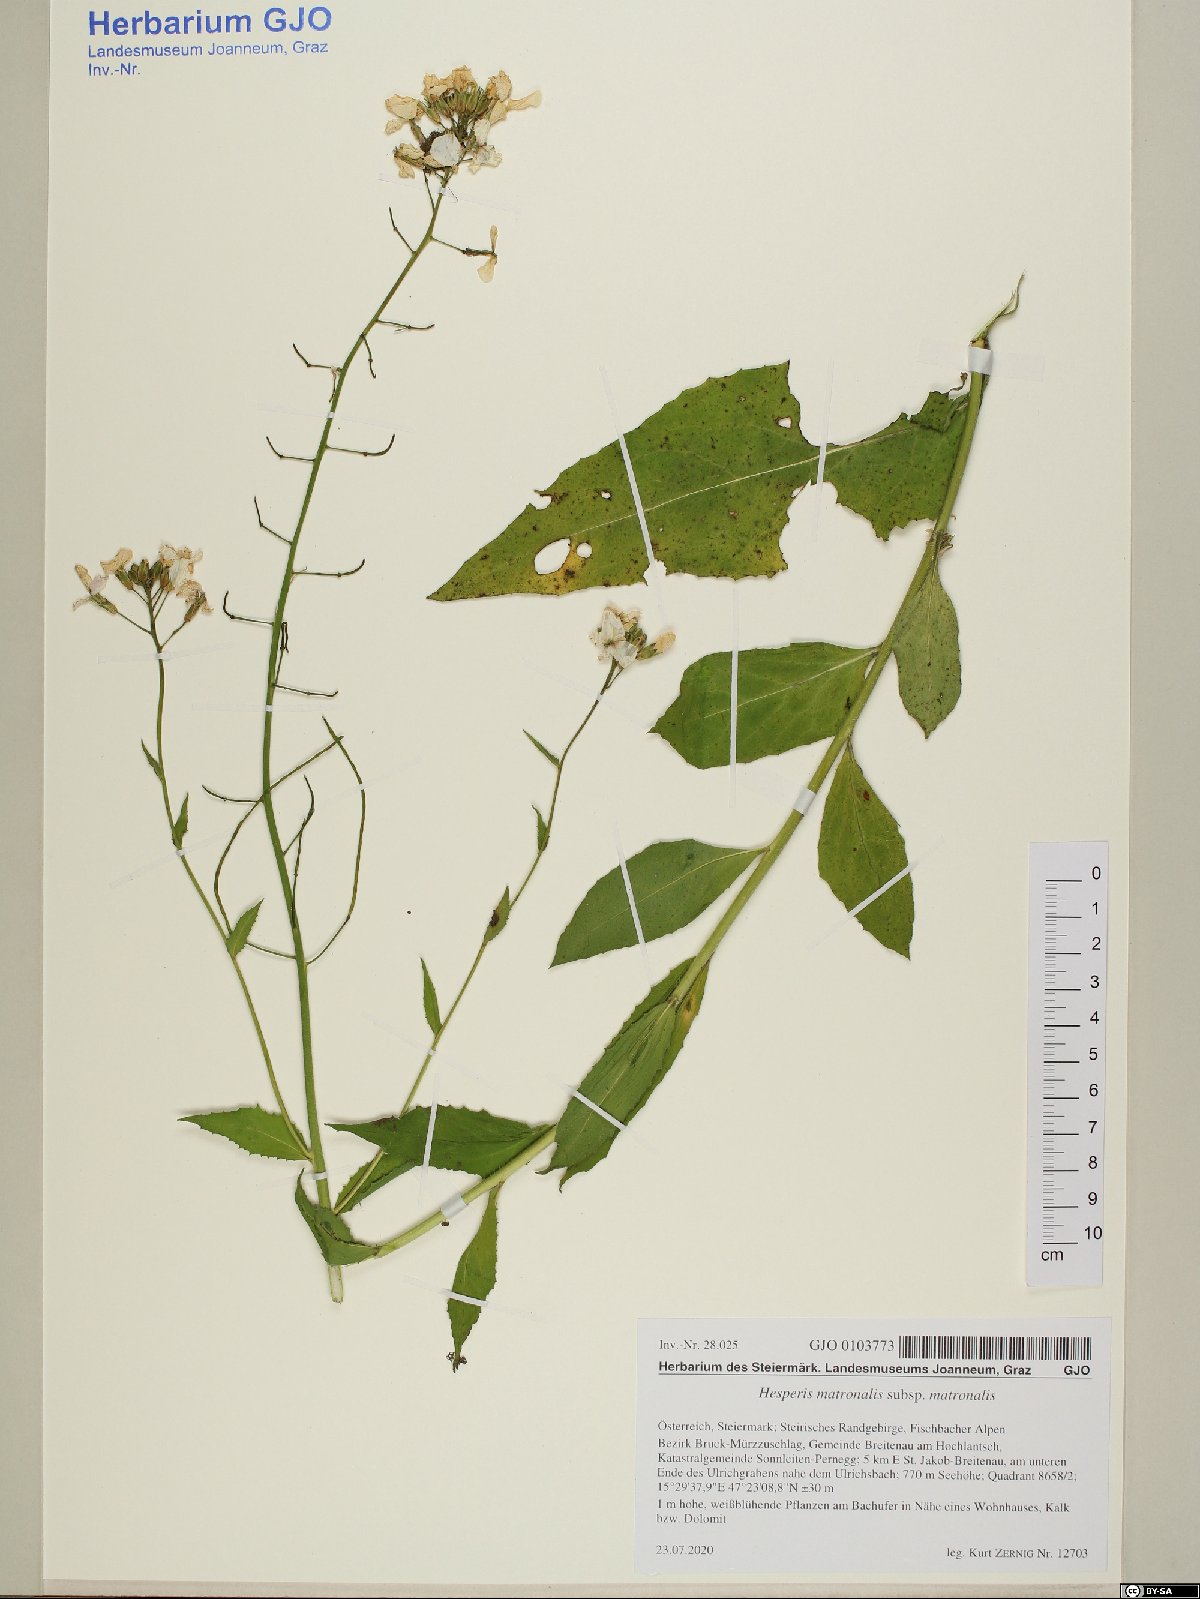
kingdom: Plantae
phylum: Tracheophyta
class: Magnoliopsida
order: Brassicales
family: Brassicaceae
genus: Hesperis
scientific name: Hesperis matronalis
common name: Dame's-violet
